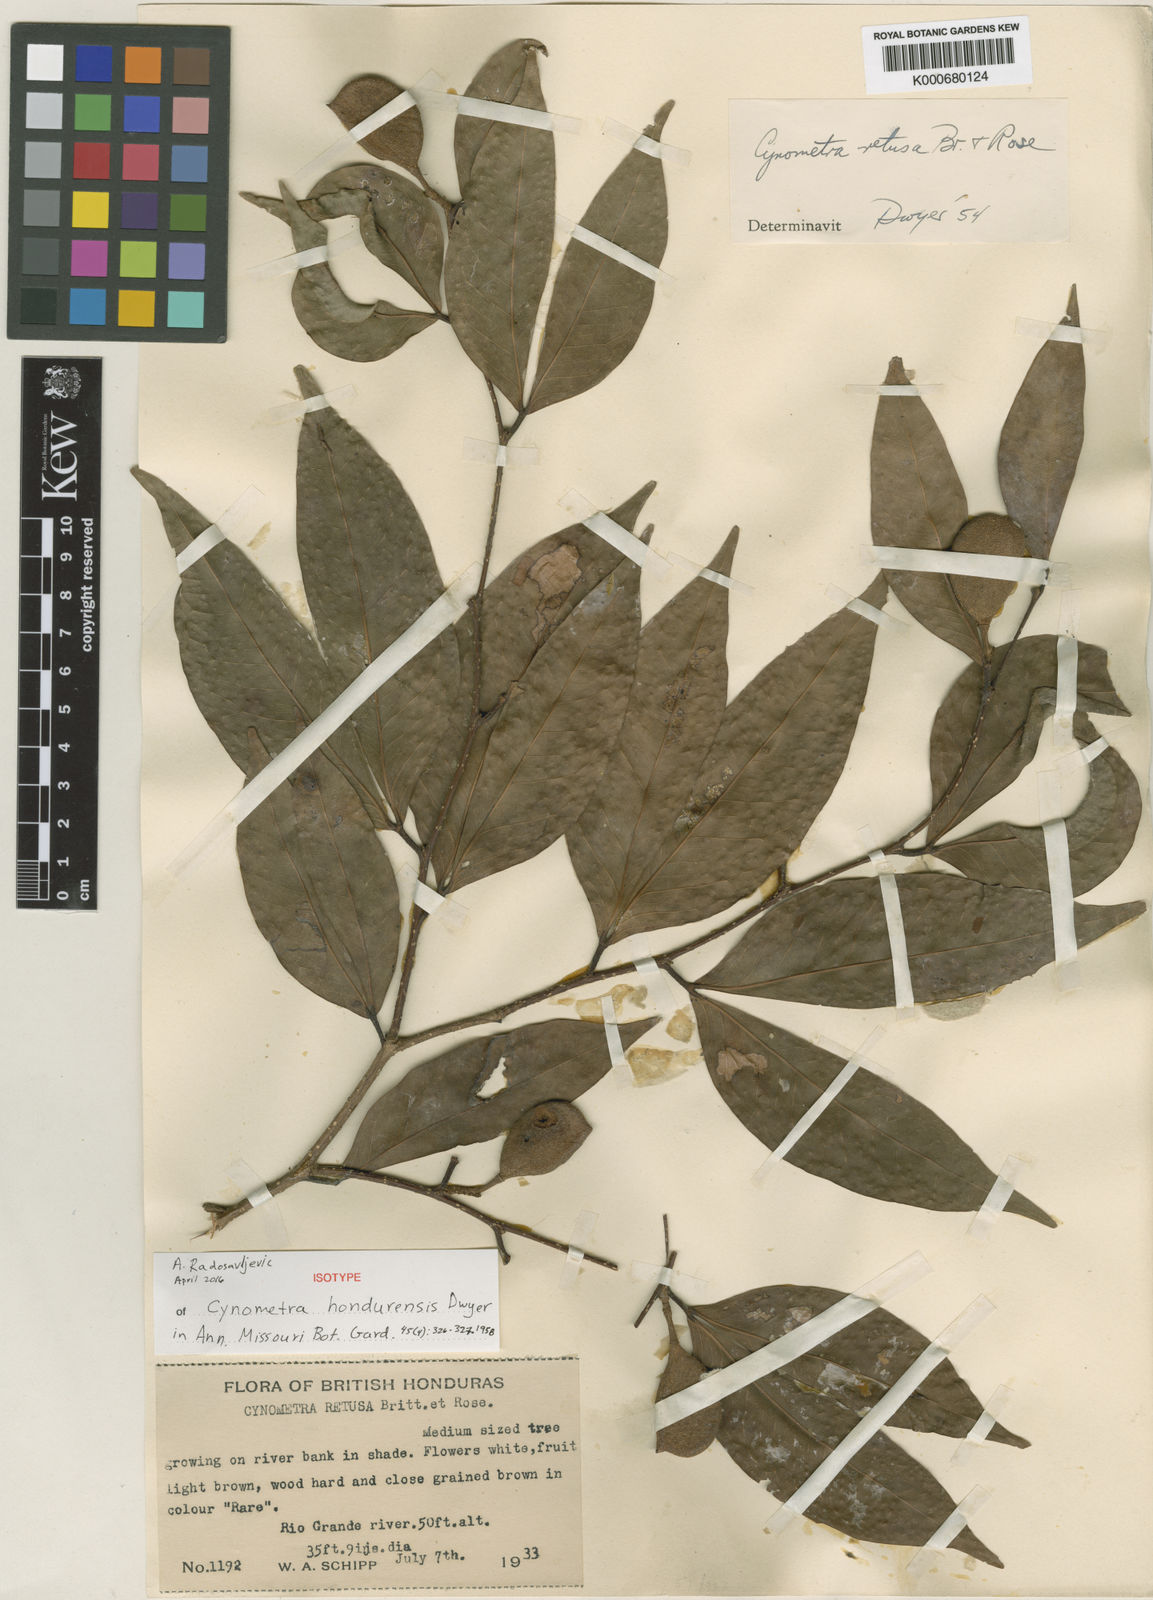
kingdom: Plantae
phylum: Tracheophyta
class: Magnoliopsida
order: Fabales
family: Fabaceae
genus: Cynometra
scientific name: Cynometra retusa
